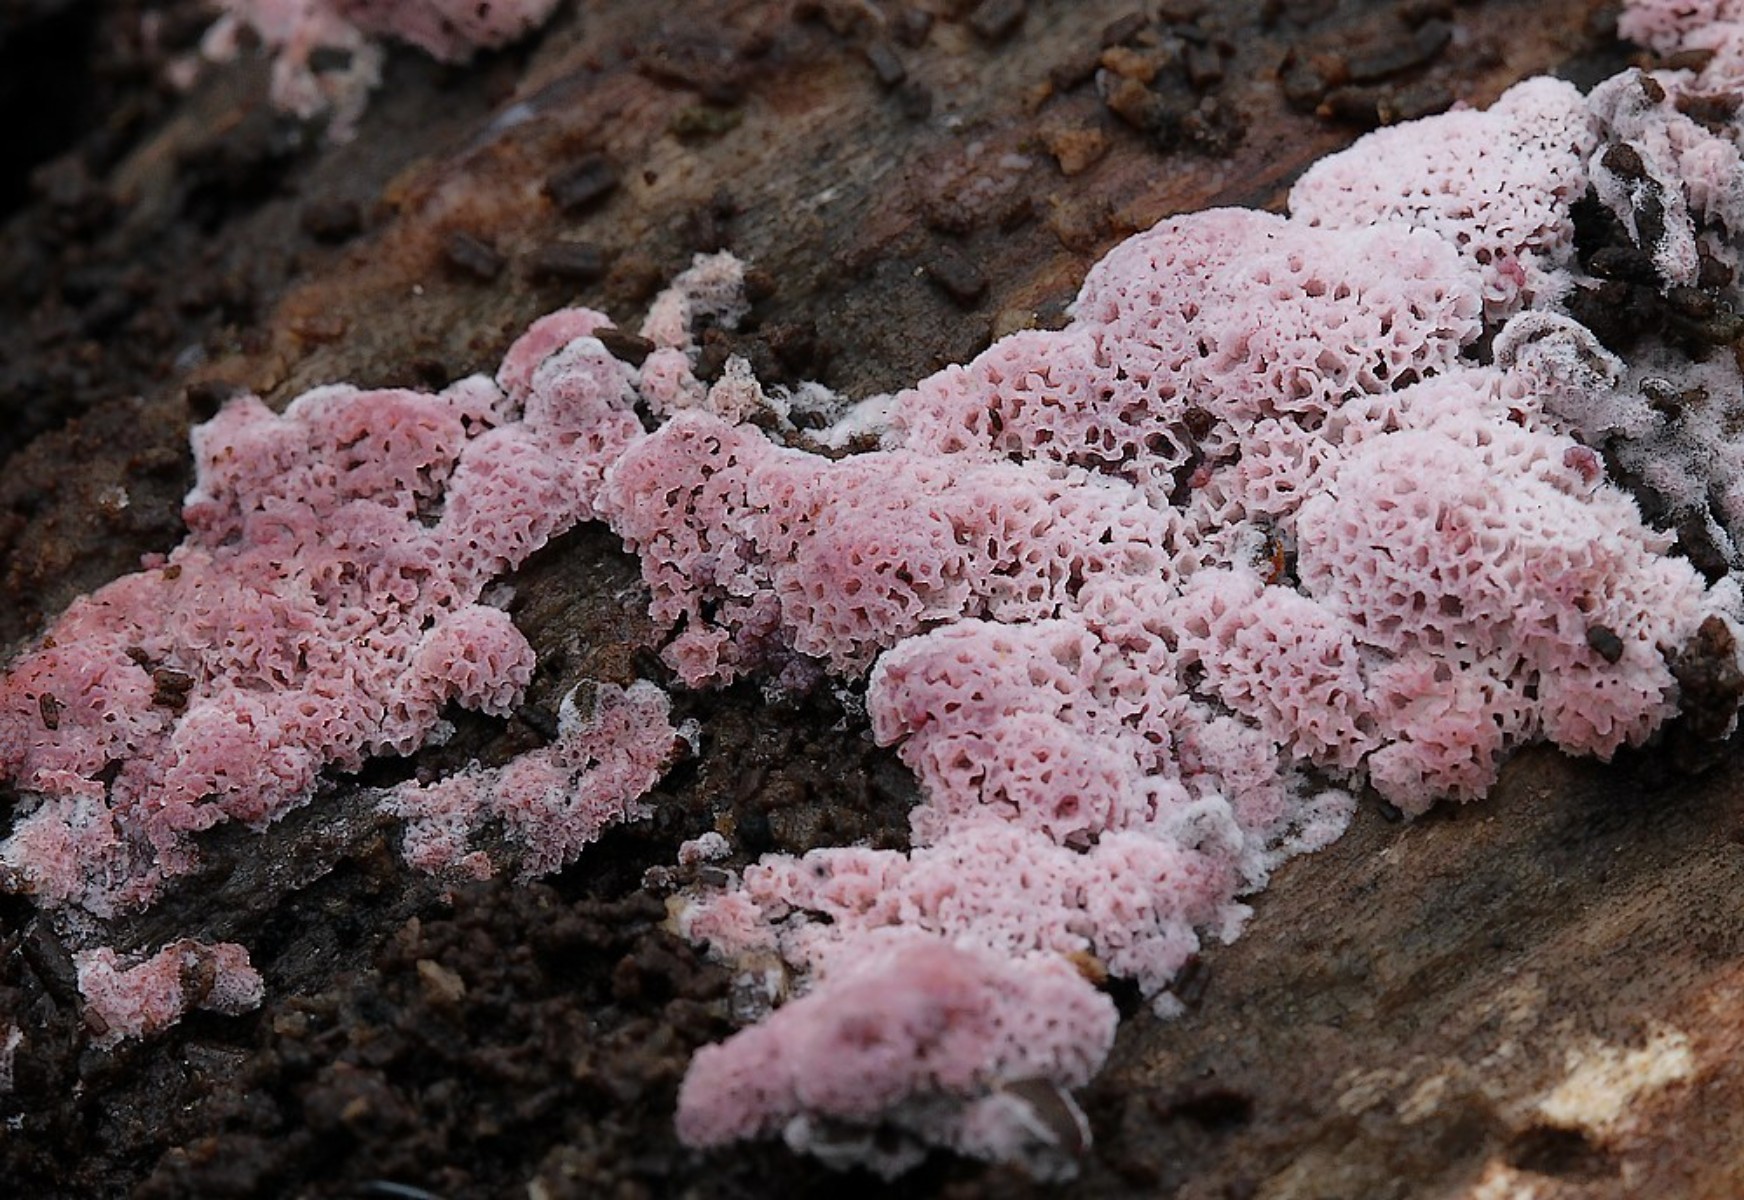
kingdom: Fungi
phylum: Basidiomycota
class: Agaricomycetes
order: Polyporales
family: Irpicaceae
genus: Ceriporia
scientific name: Ceriporia
